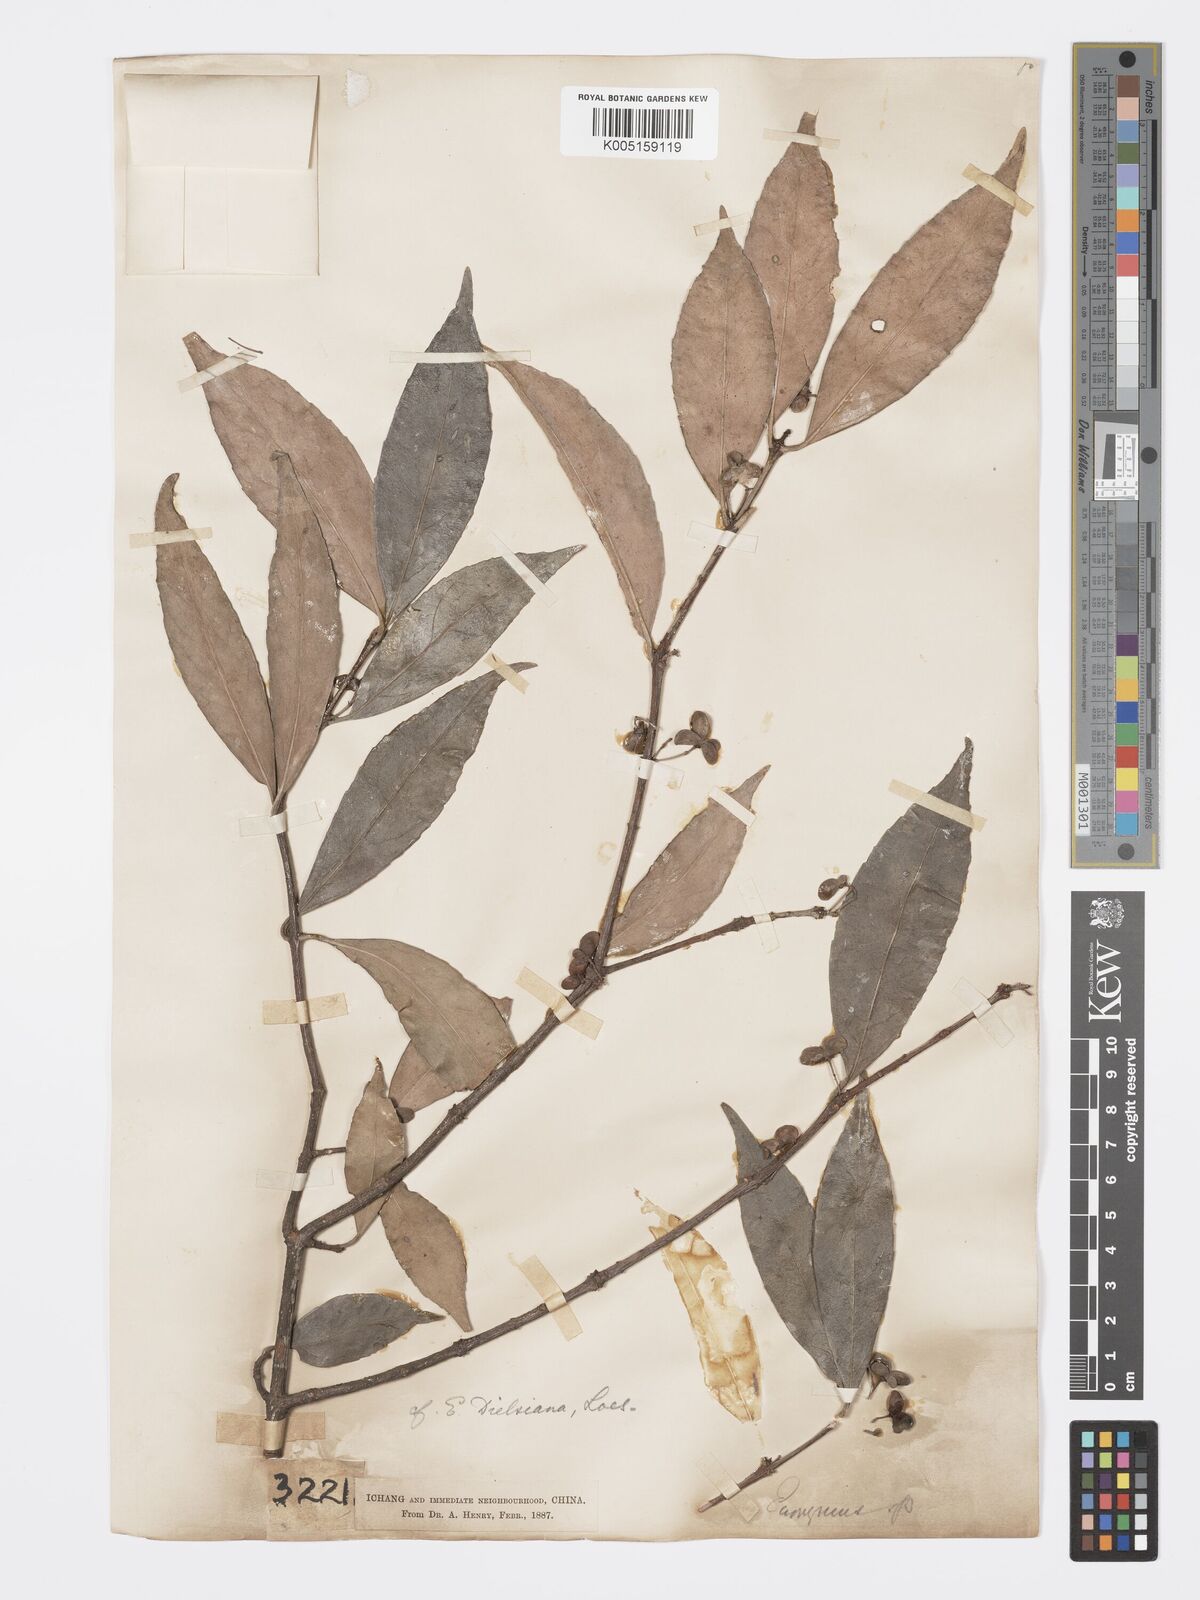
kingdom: Plantae
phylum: Tracheophyta
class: Magnoliopsida
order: Celastrales
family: Celastraceae
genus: Euonymus
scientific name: Euonymus dielsianus
